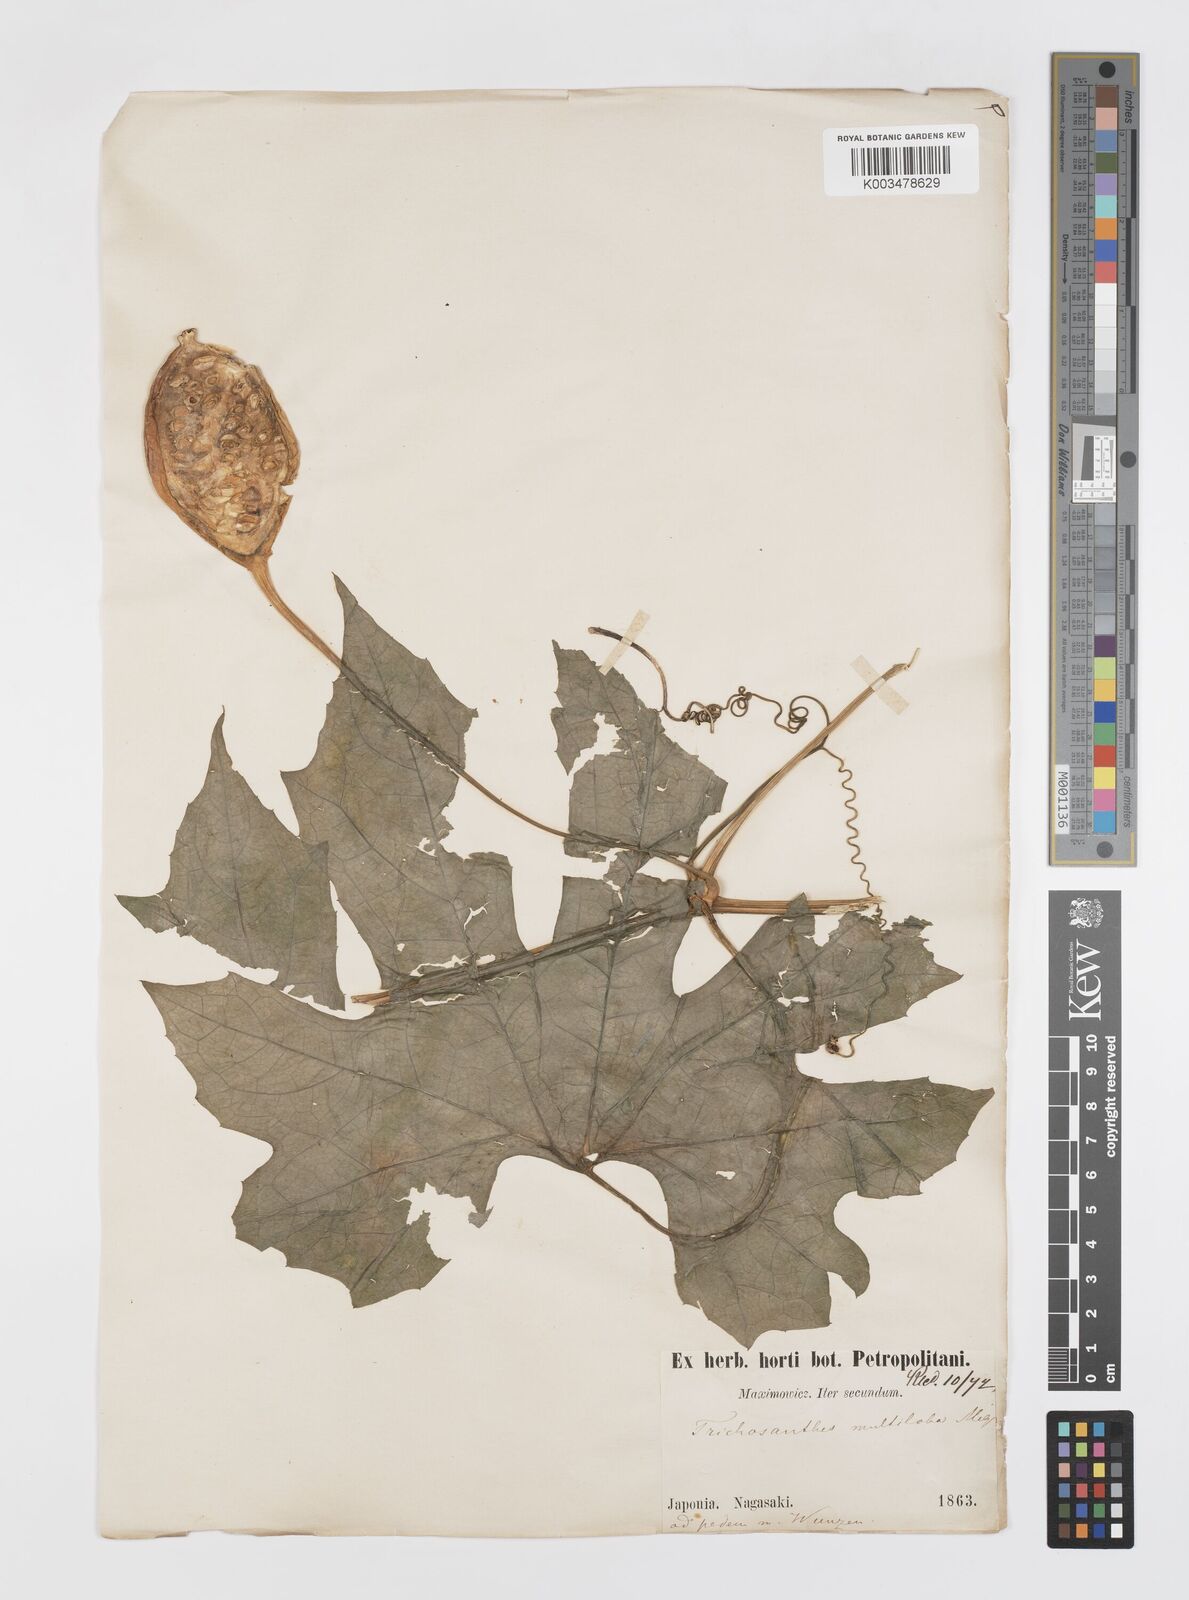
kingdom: Plantae
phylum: Tracheophyta
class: Magnoliopsida
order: Cucurbitales
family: Cucurbitaceae
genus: Trichosanthes
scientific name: Trichosanthes multiloba
